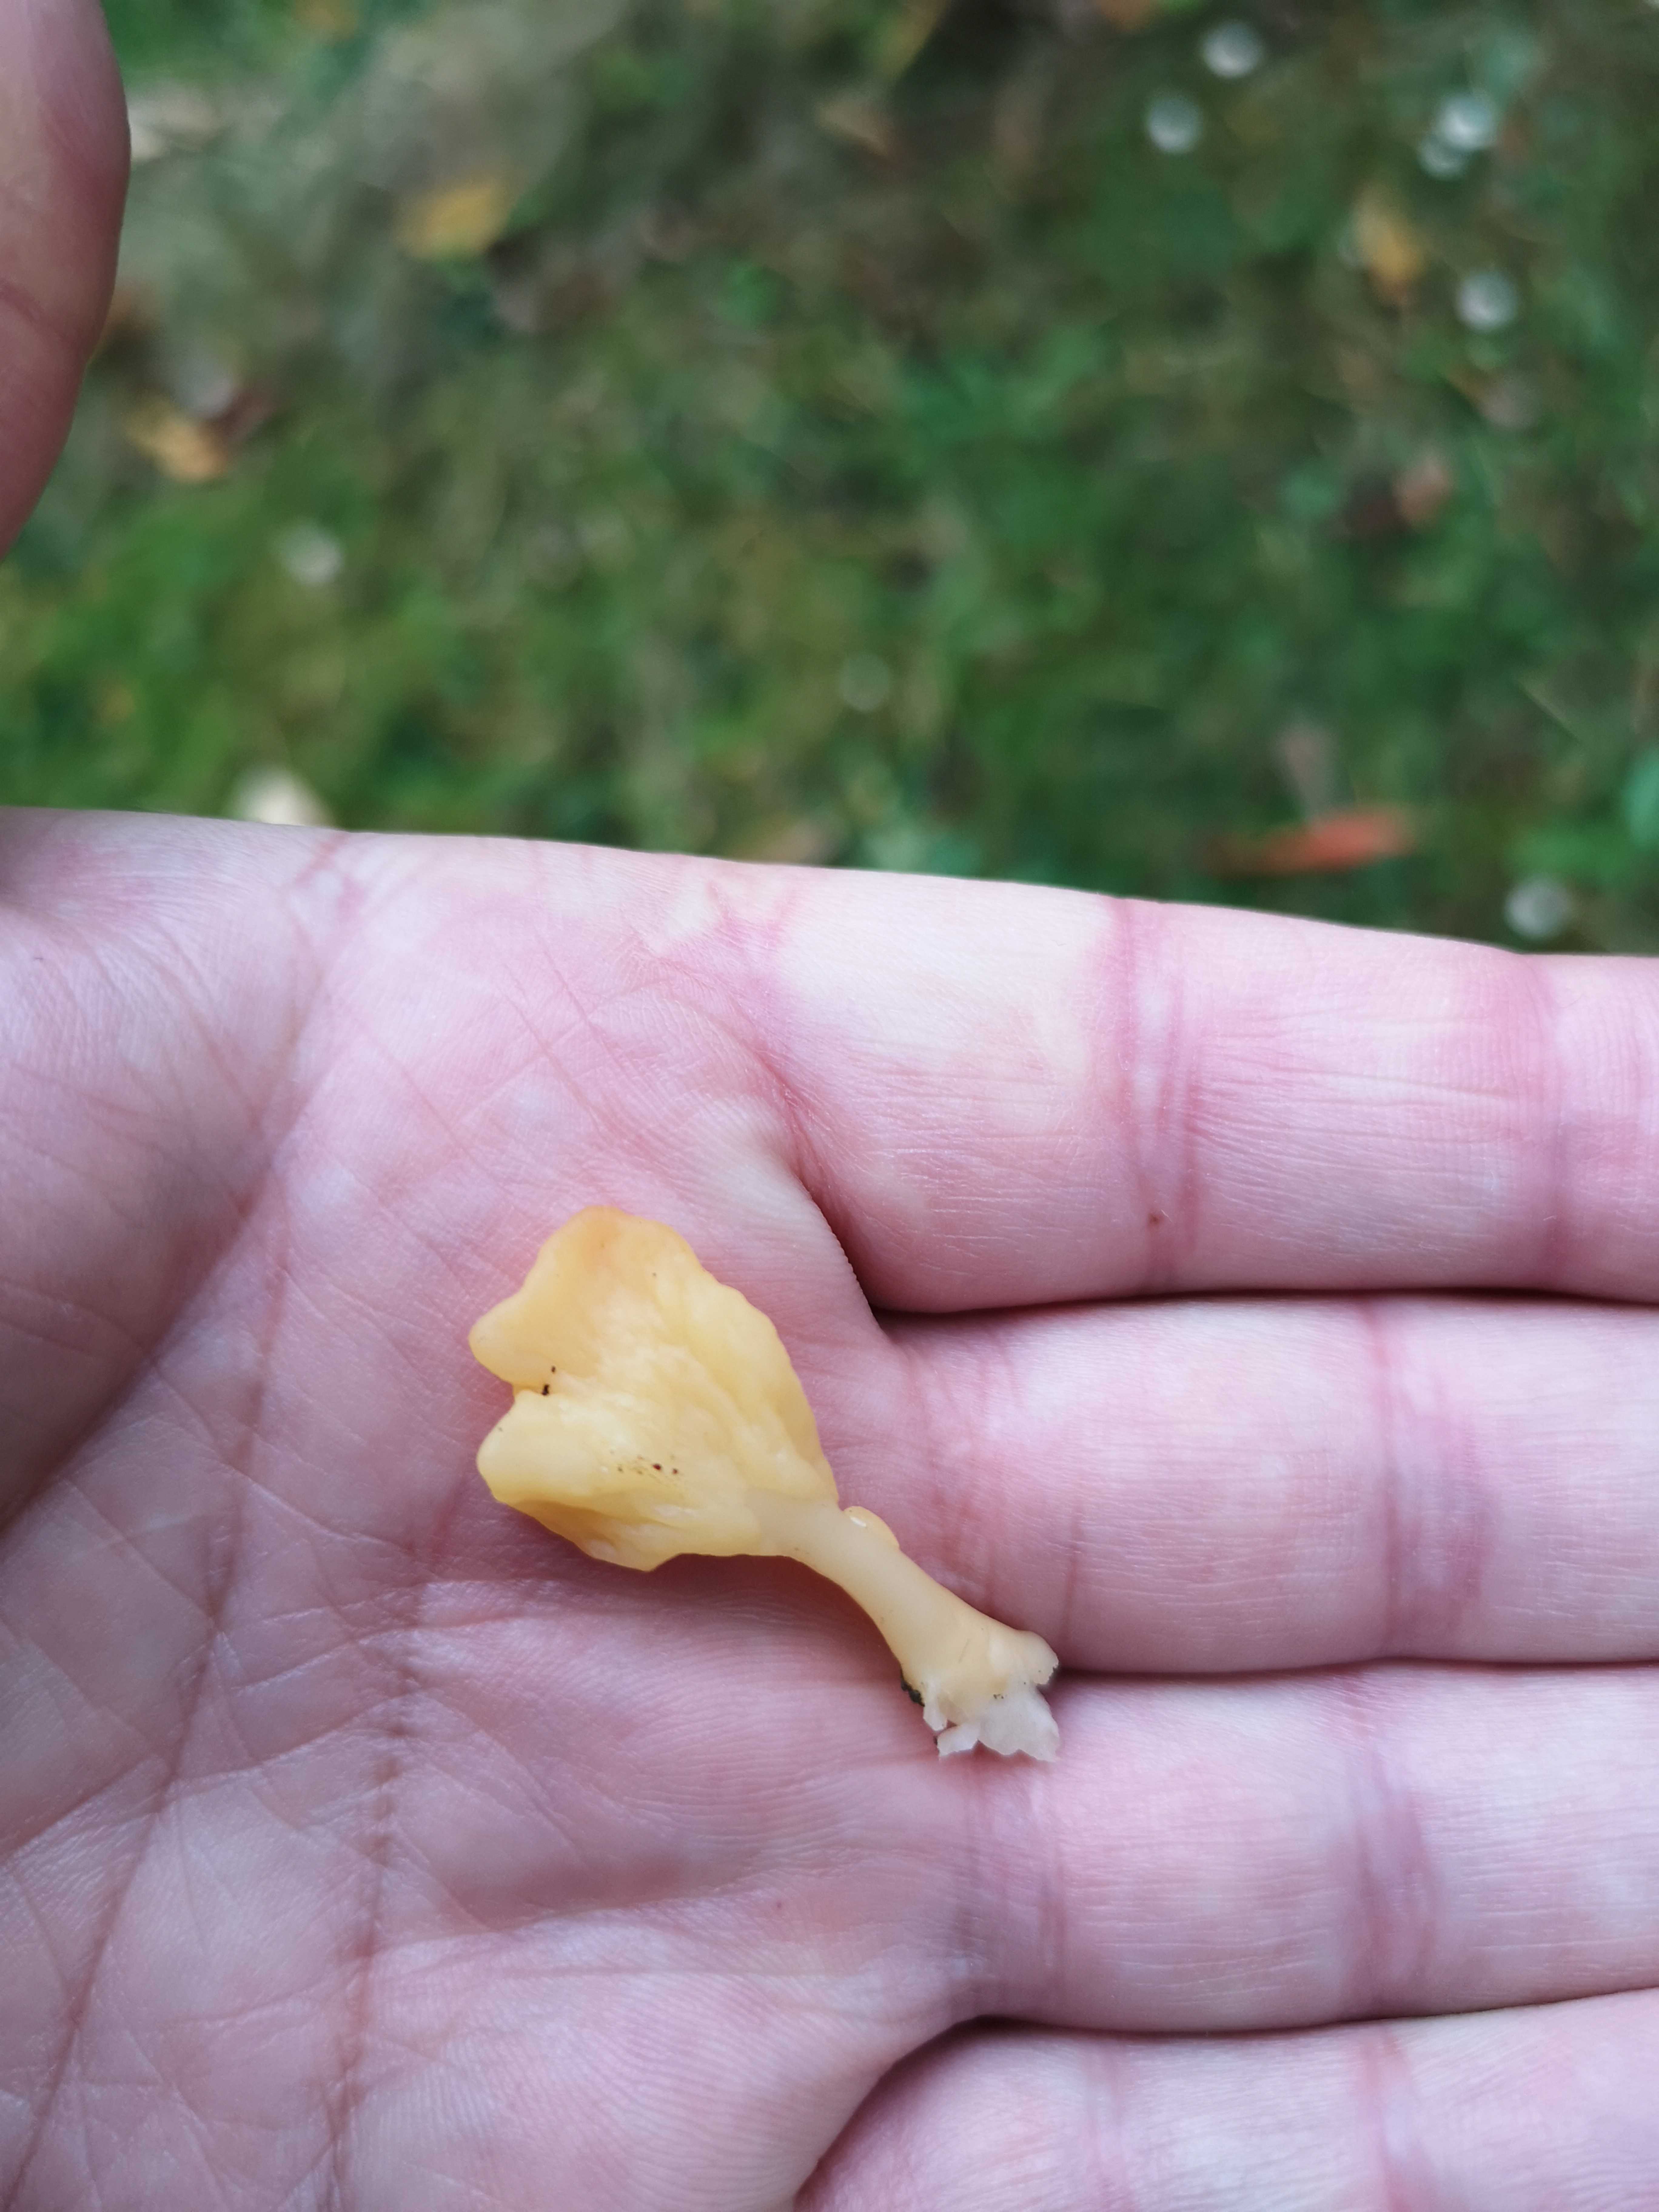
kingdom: Fungi
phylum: Ascomycota
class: Leotiomycetes
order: Rhytismatales
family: Cudoniaceae
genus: Spathularia
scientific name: Spathularia flavida
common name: gul spatelsvamp
